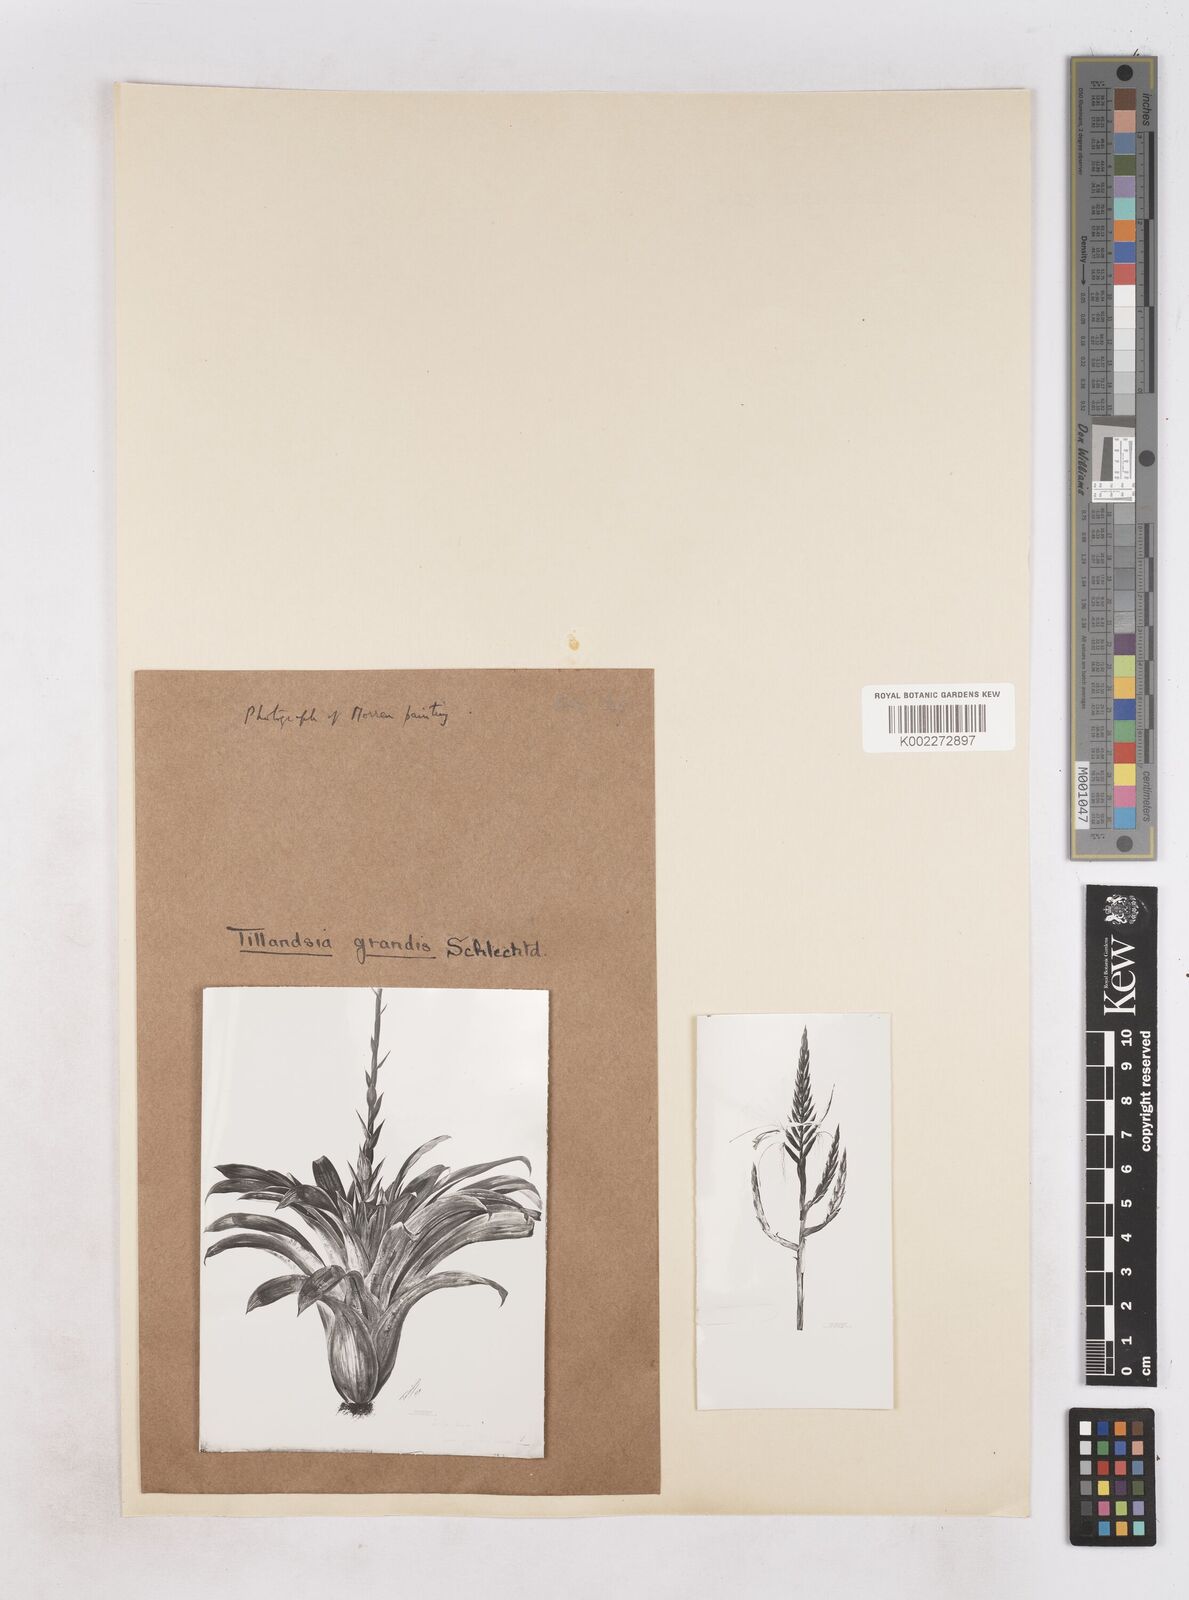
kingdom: Plantae
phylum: Tracheophyta
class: Liliopsida
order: Poales
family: Bromeliaceae
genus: Pseudalcantarea
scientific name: Pseudalcantarea grandis
